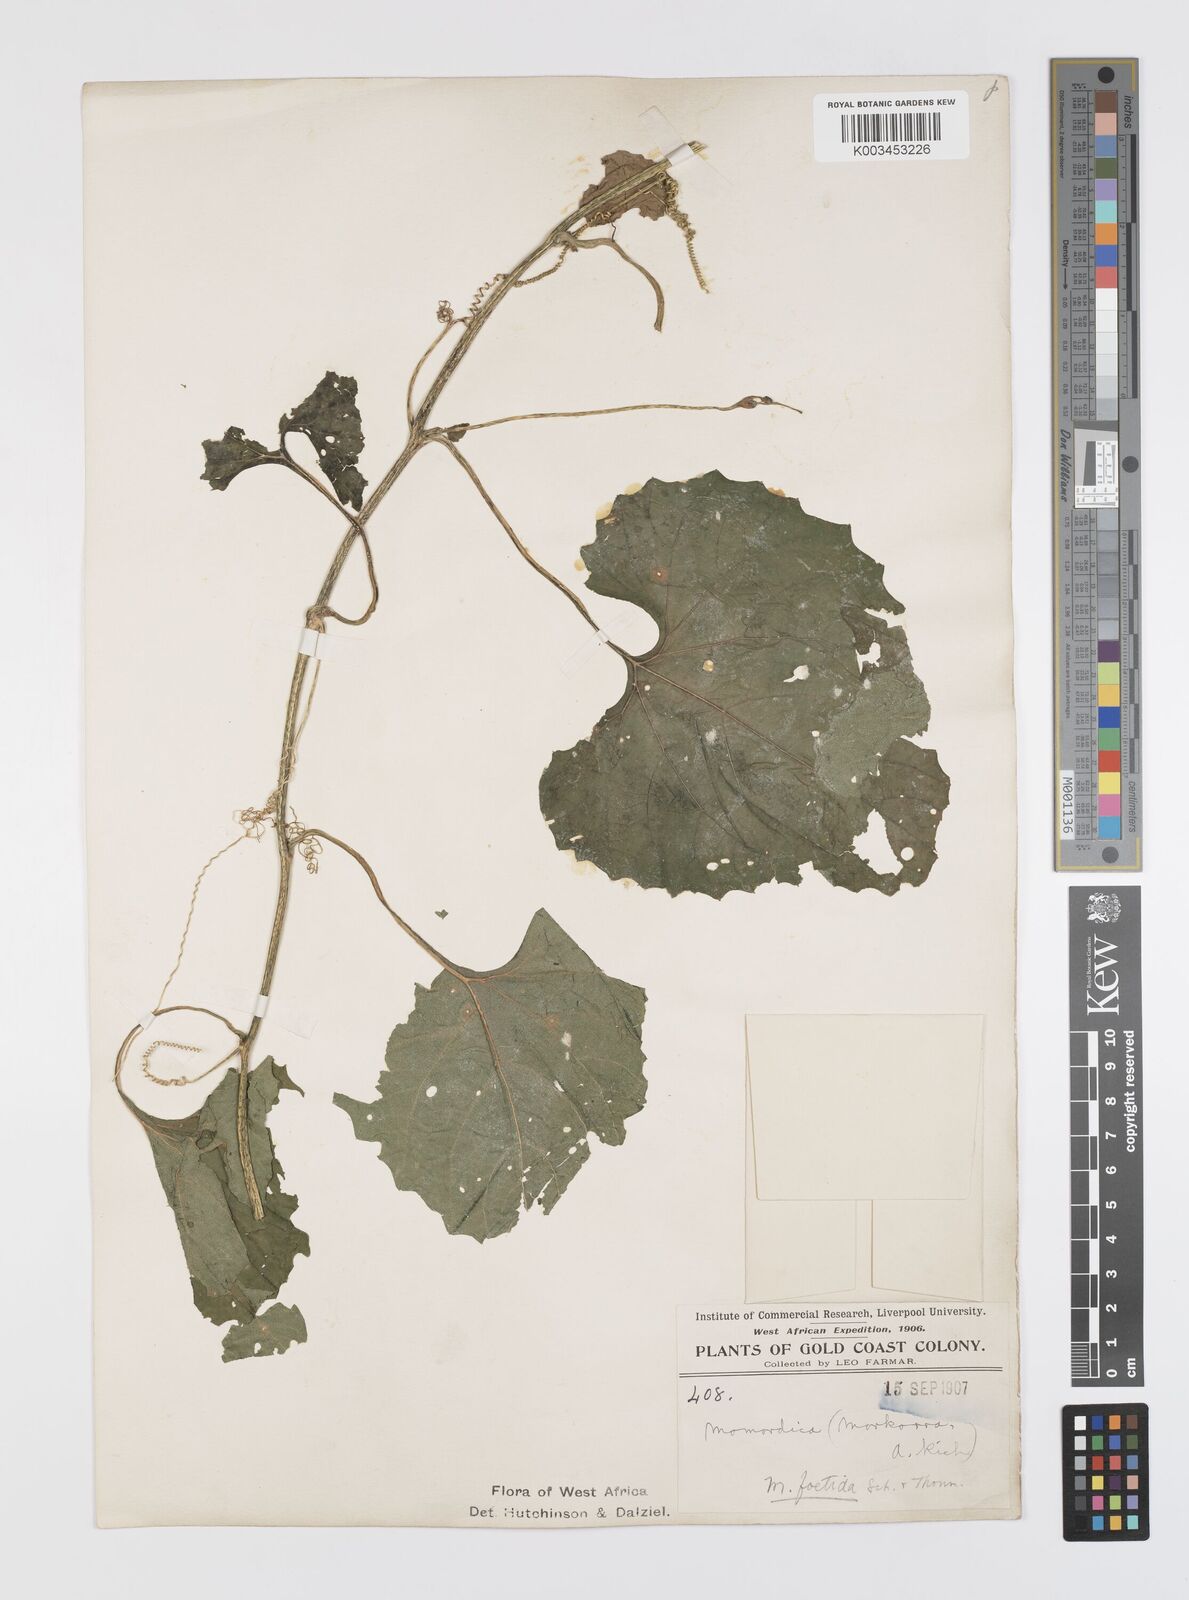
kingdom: Plantae
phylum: Tracheophyta
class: Magnoliopsida
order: Cucurbitales
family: Cucurbitaceae
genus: Momordica
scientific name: Momordica foetida
